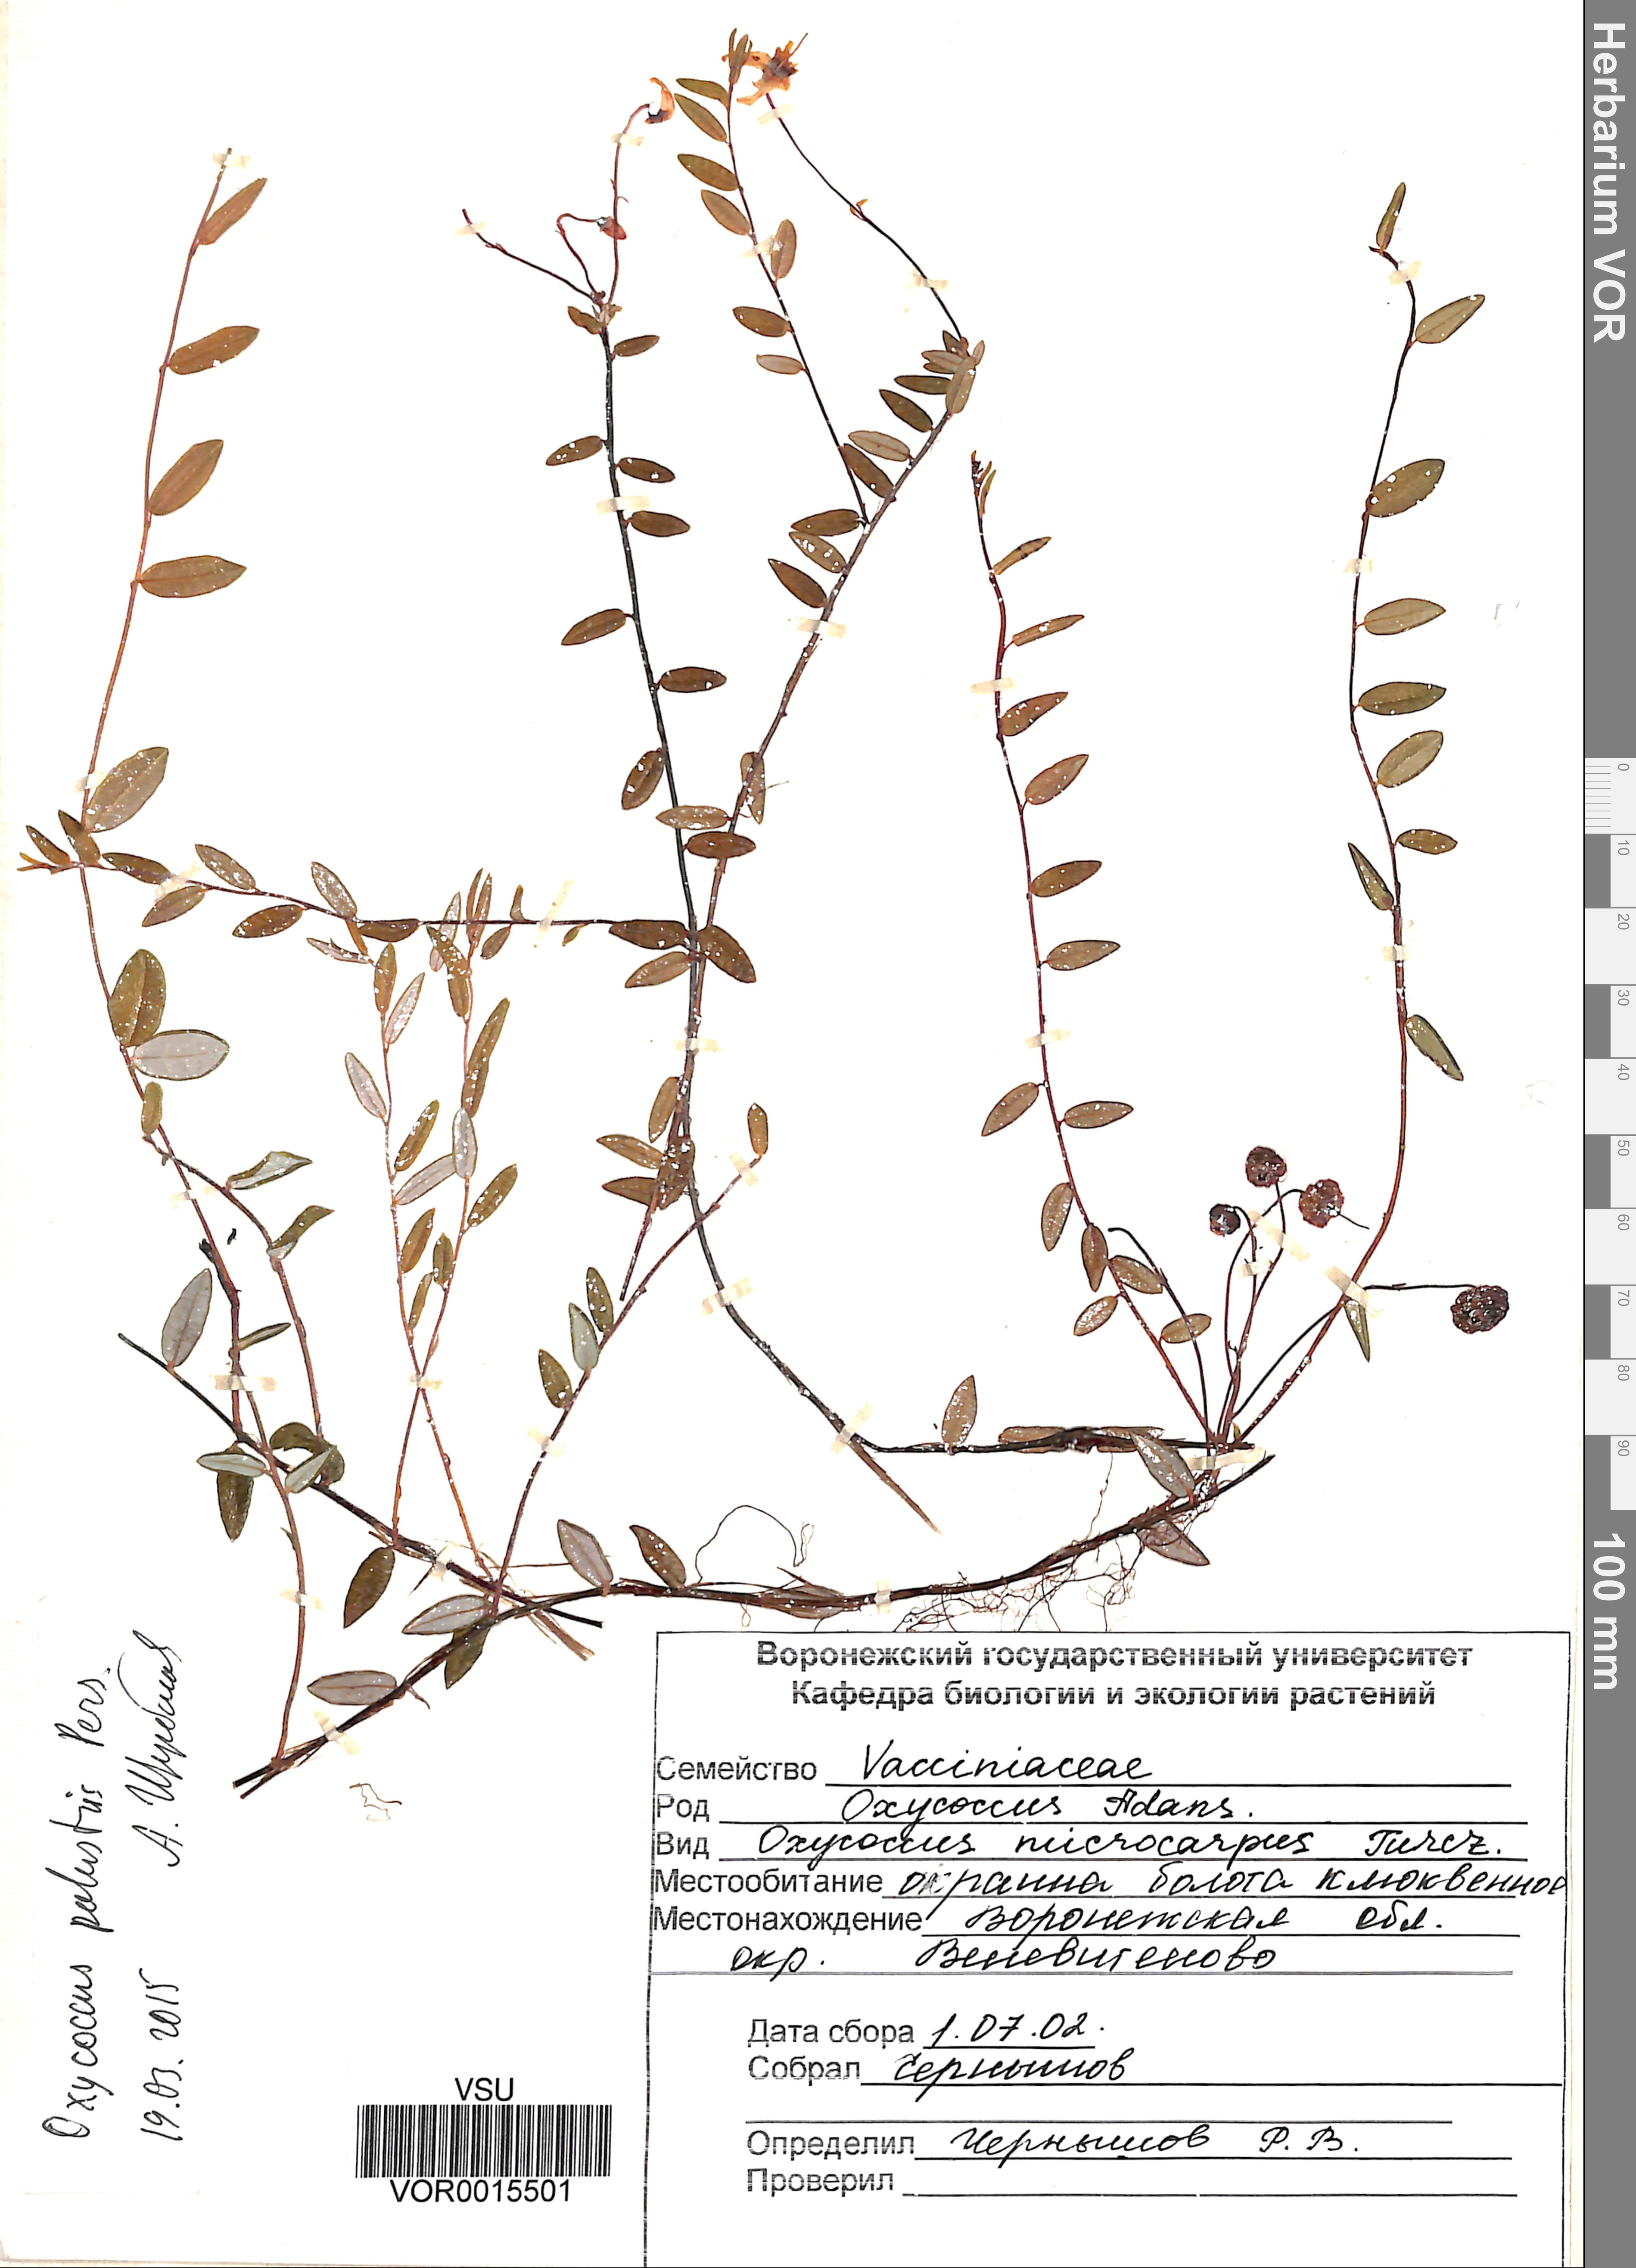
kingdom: Plantae
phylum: Tracheophyta
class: Magnoliopsida
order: Ericales
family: Ericaceae
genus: Vaccinium
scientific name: Vaccinium oxycoccos
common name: Cranberry
